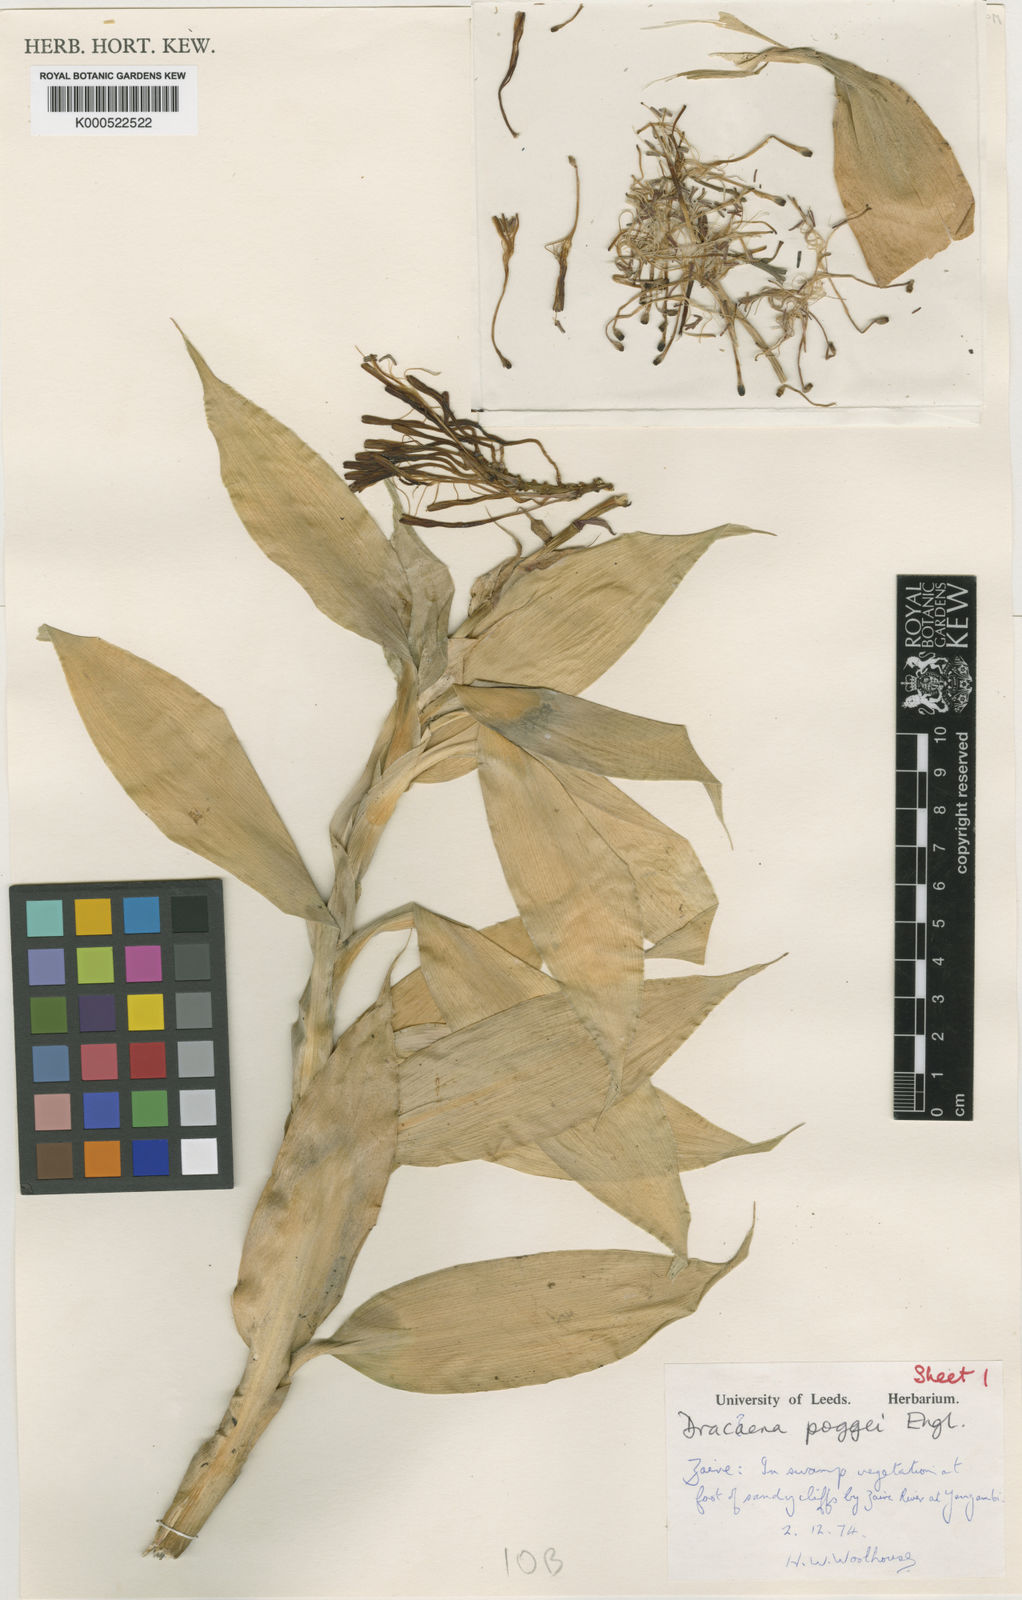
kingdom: Plantae
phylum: Tracheophyta
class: Liliopsida
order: Asparagales
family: Asparagaceae
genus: Dracaena
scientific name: Dracaena sanderiana
